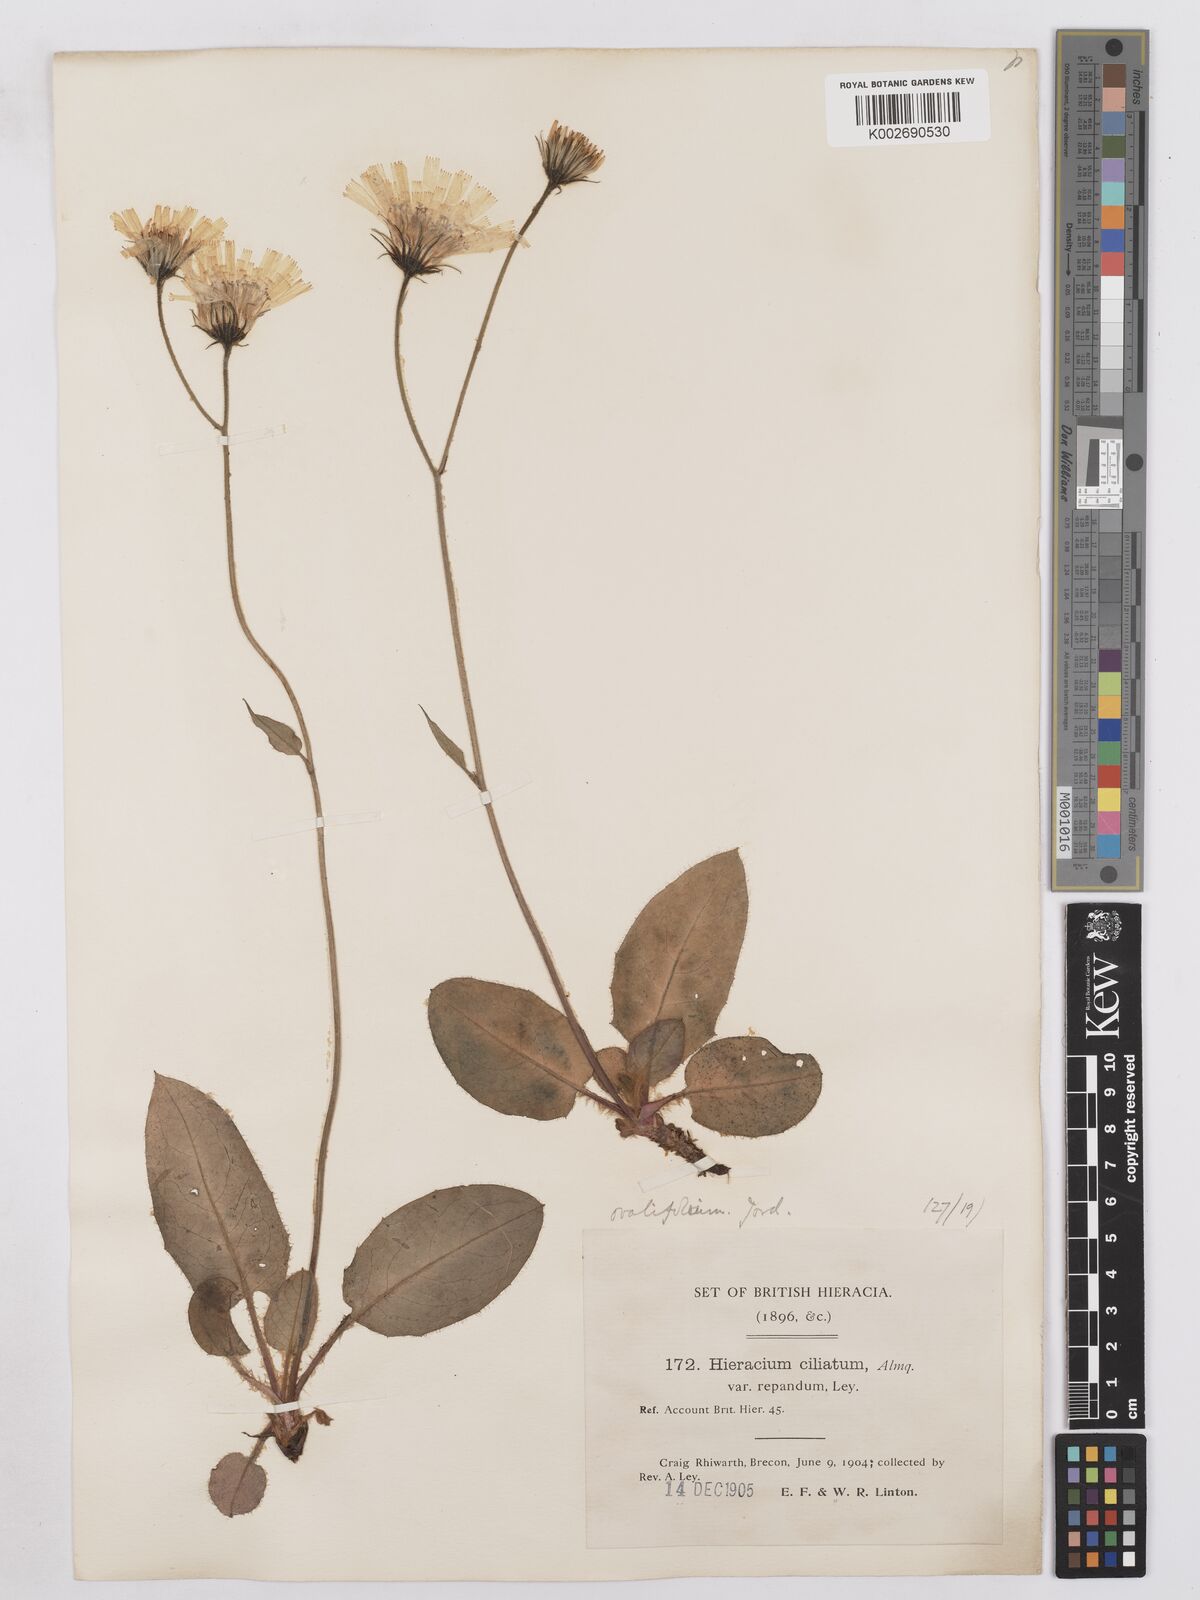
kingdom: Plantae
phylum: Tracheophyta
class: Magnoliopsida
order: Asterales
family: Asteraceae
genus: Hieracium
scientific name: Hieracium repandulare
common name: Repand-leaved hawkweed
